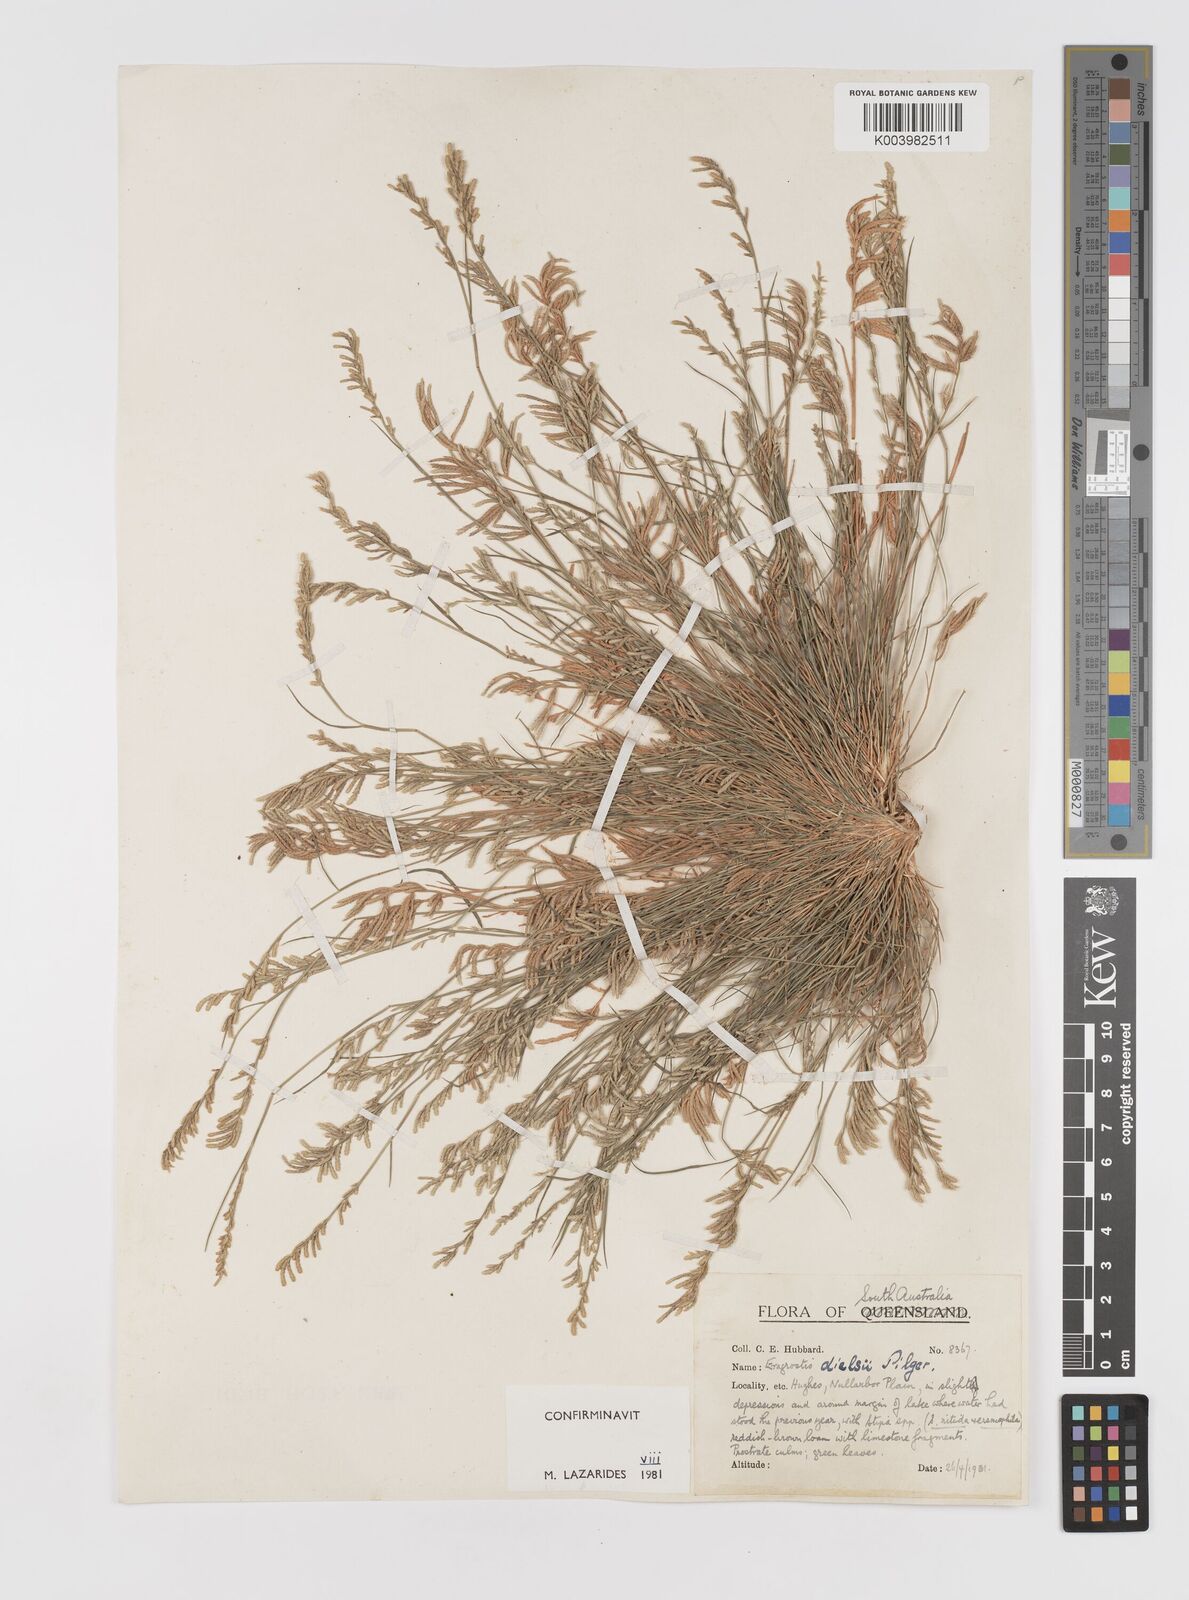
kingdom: Plantae
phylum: Tracheophyta
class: Liliopsida
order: Poales
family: Poaceae
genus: Eragrostis
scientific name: Eragrostis dielsii
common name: Lovegrass
